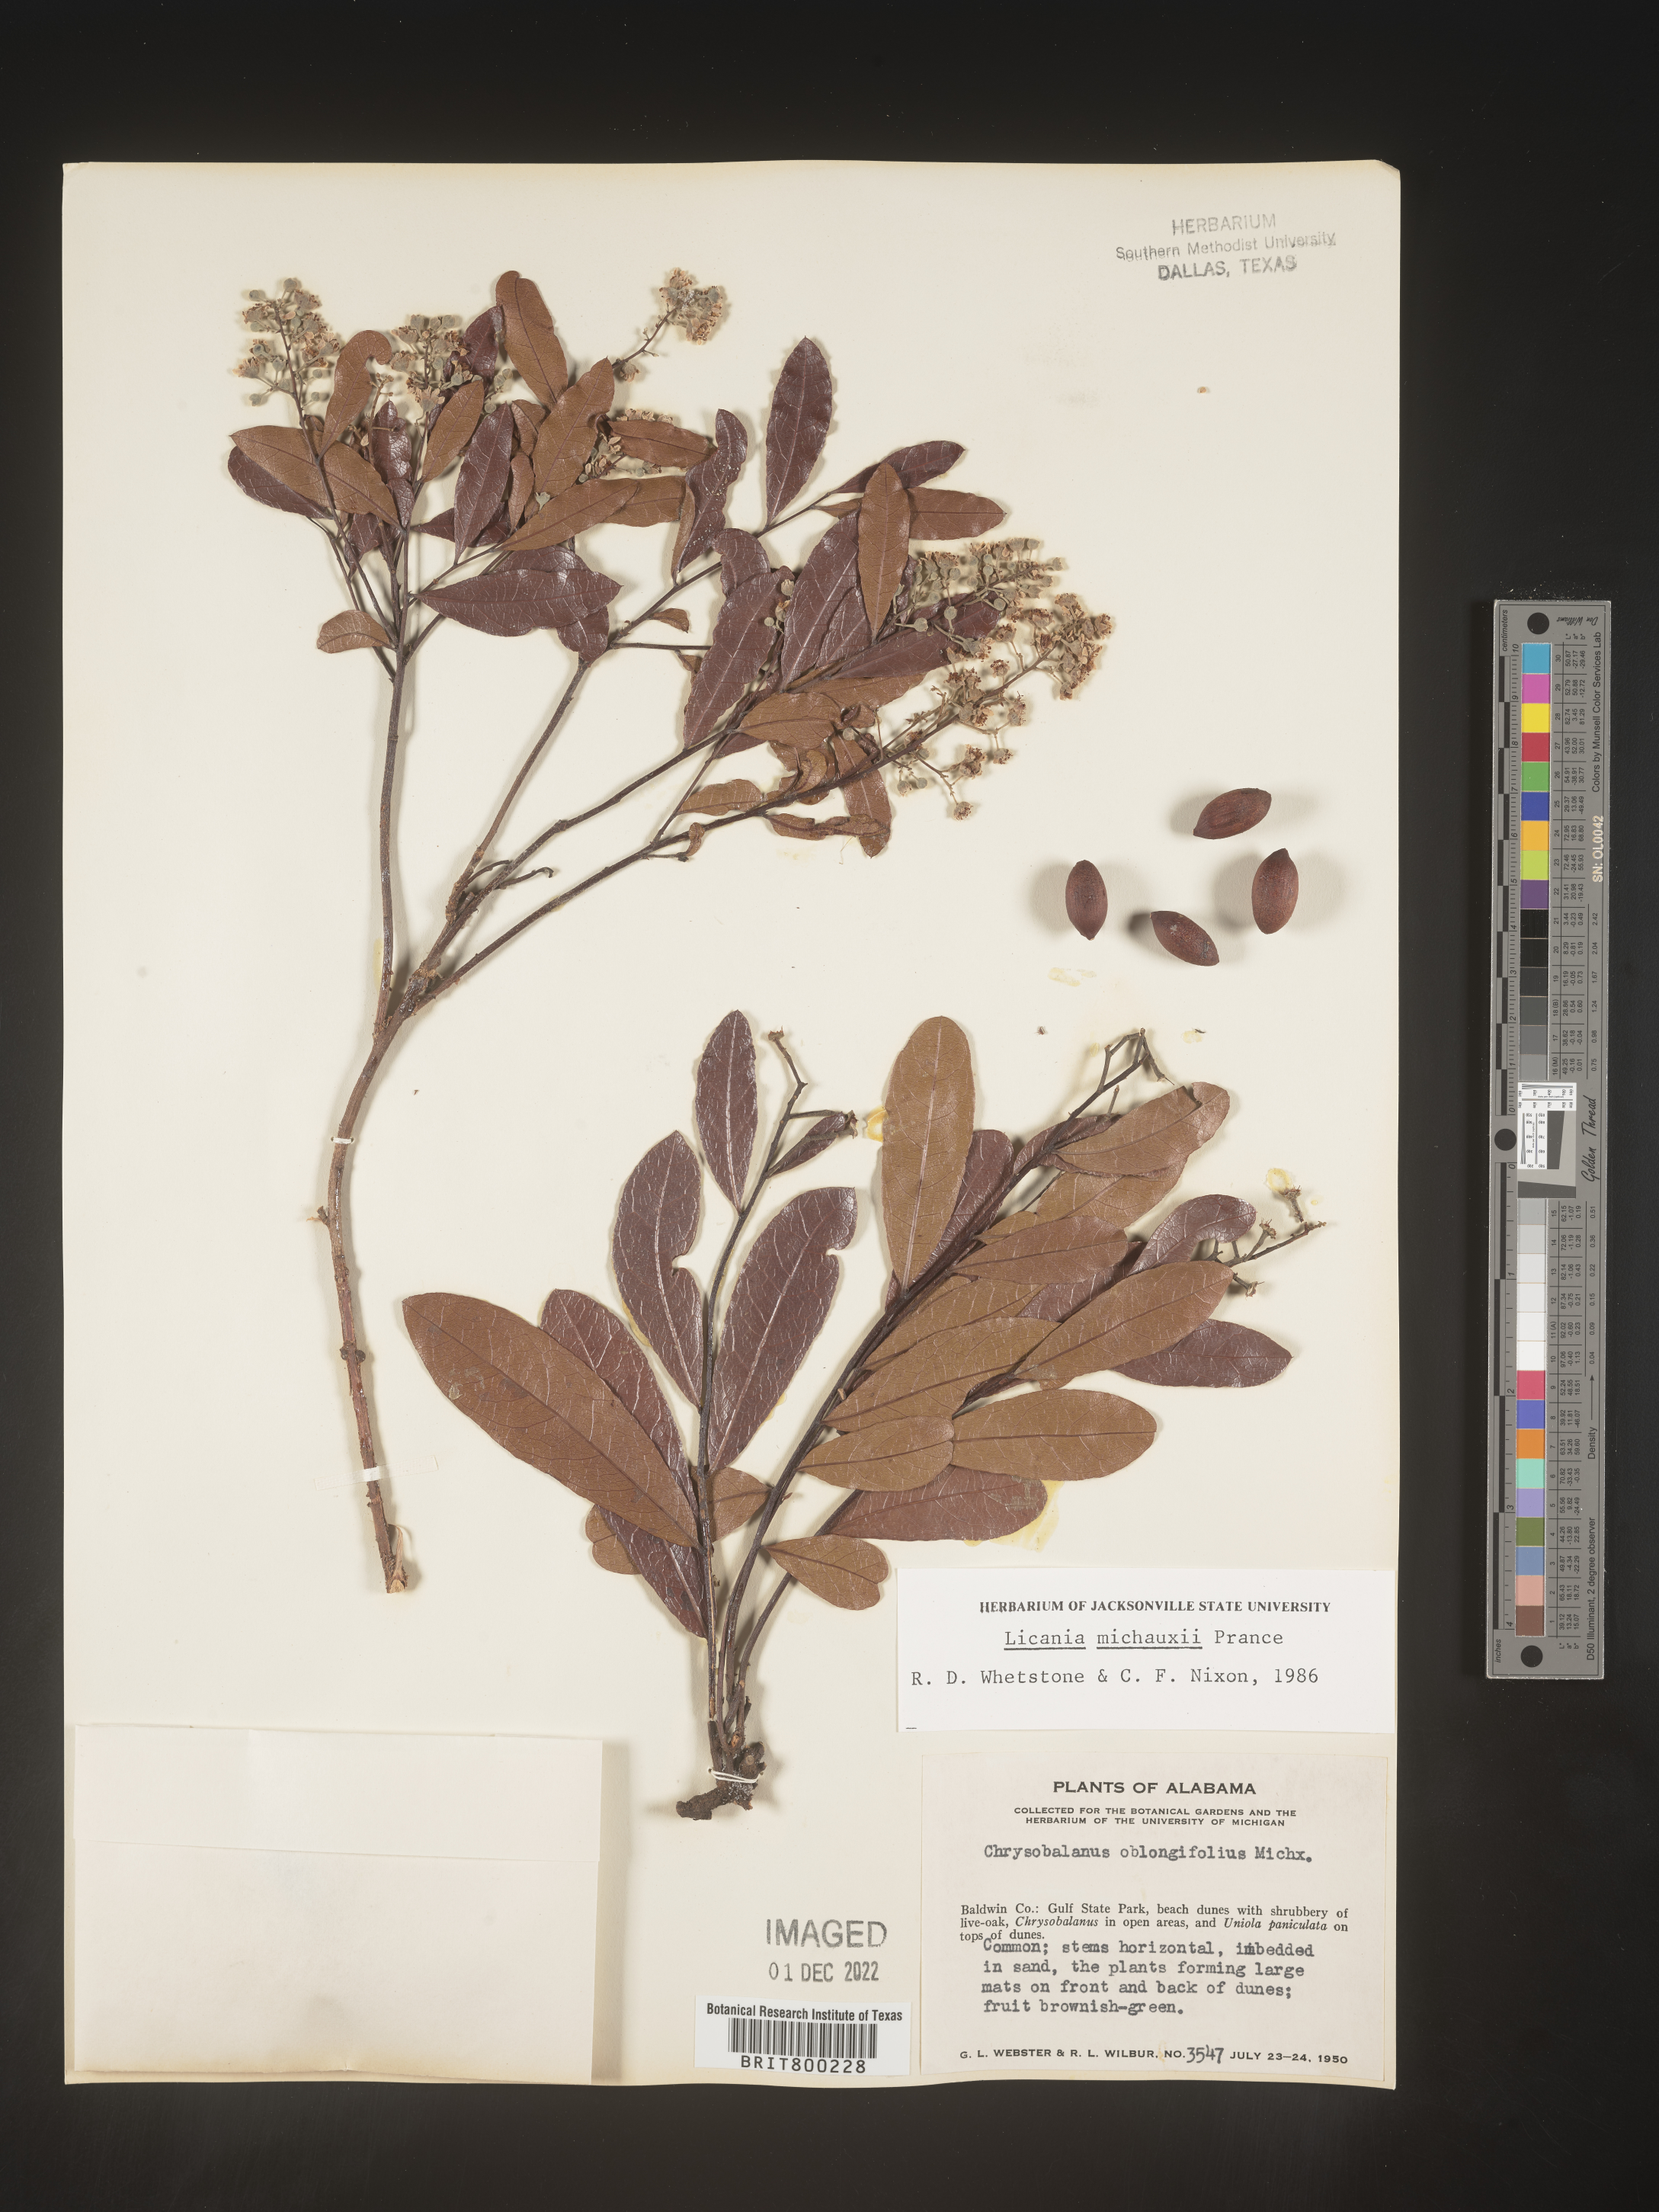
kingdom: Plantae
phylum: Tracheophyta
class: Magnoliopsida
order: Malpighiales
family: Chrysobalanaceae
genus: Geobalanus
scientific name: Geobalanus oblongifolius
